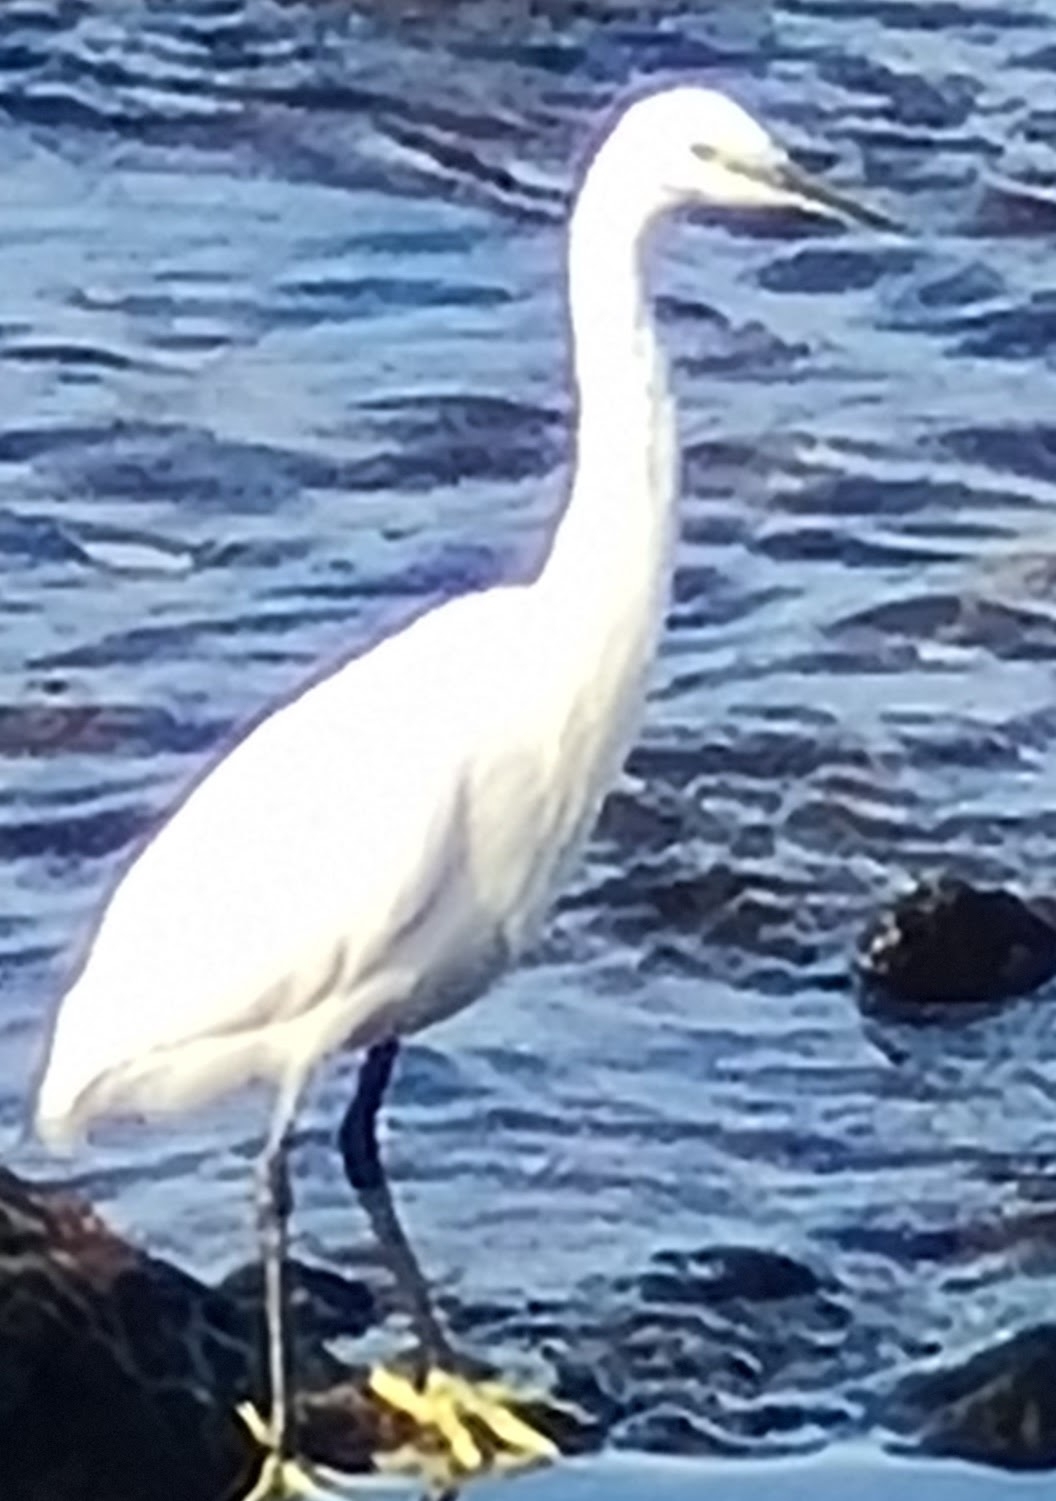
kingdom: Animalia
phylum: Chordata
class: Aves
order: Pelecaniformes
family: Ardeidae
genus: Egretta
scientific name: Egretta garzetta
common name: Silkehejre
